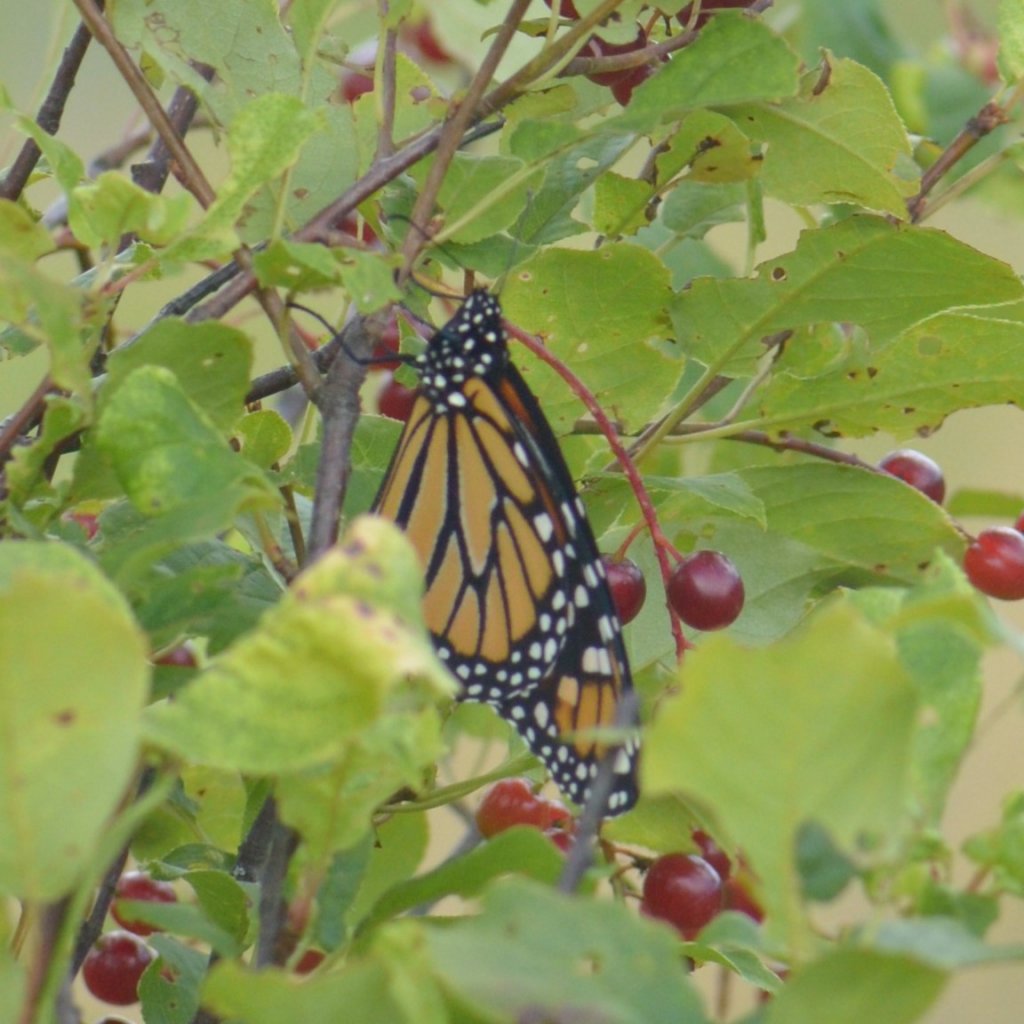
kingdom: Animalia
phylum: Arthropoda
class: Insecta
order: Lepidoptera
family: Nymphalidae
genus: Danaus
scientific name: Danaus plexippus
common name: Monarch
